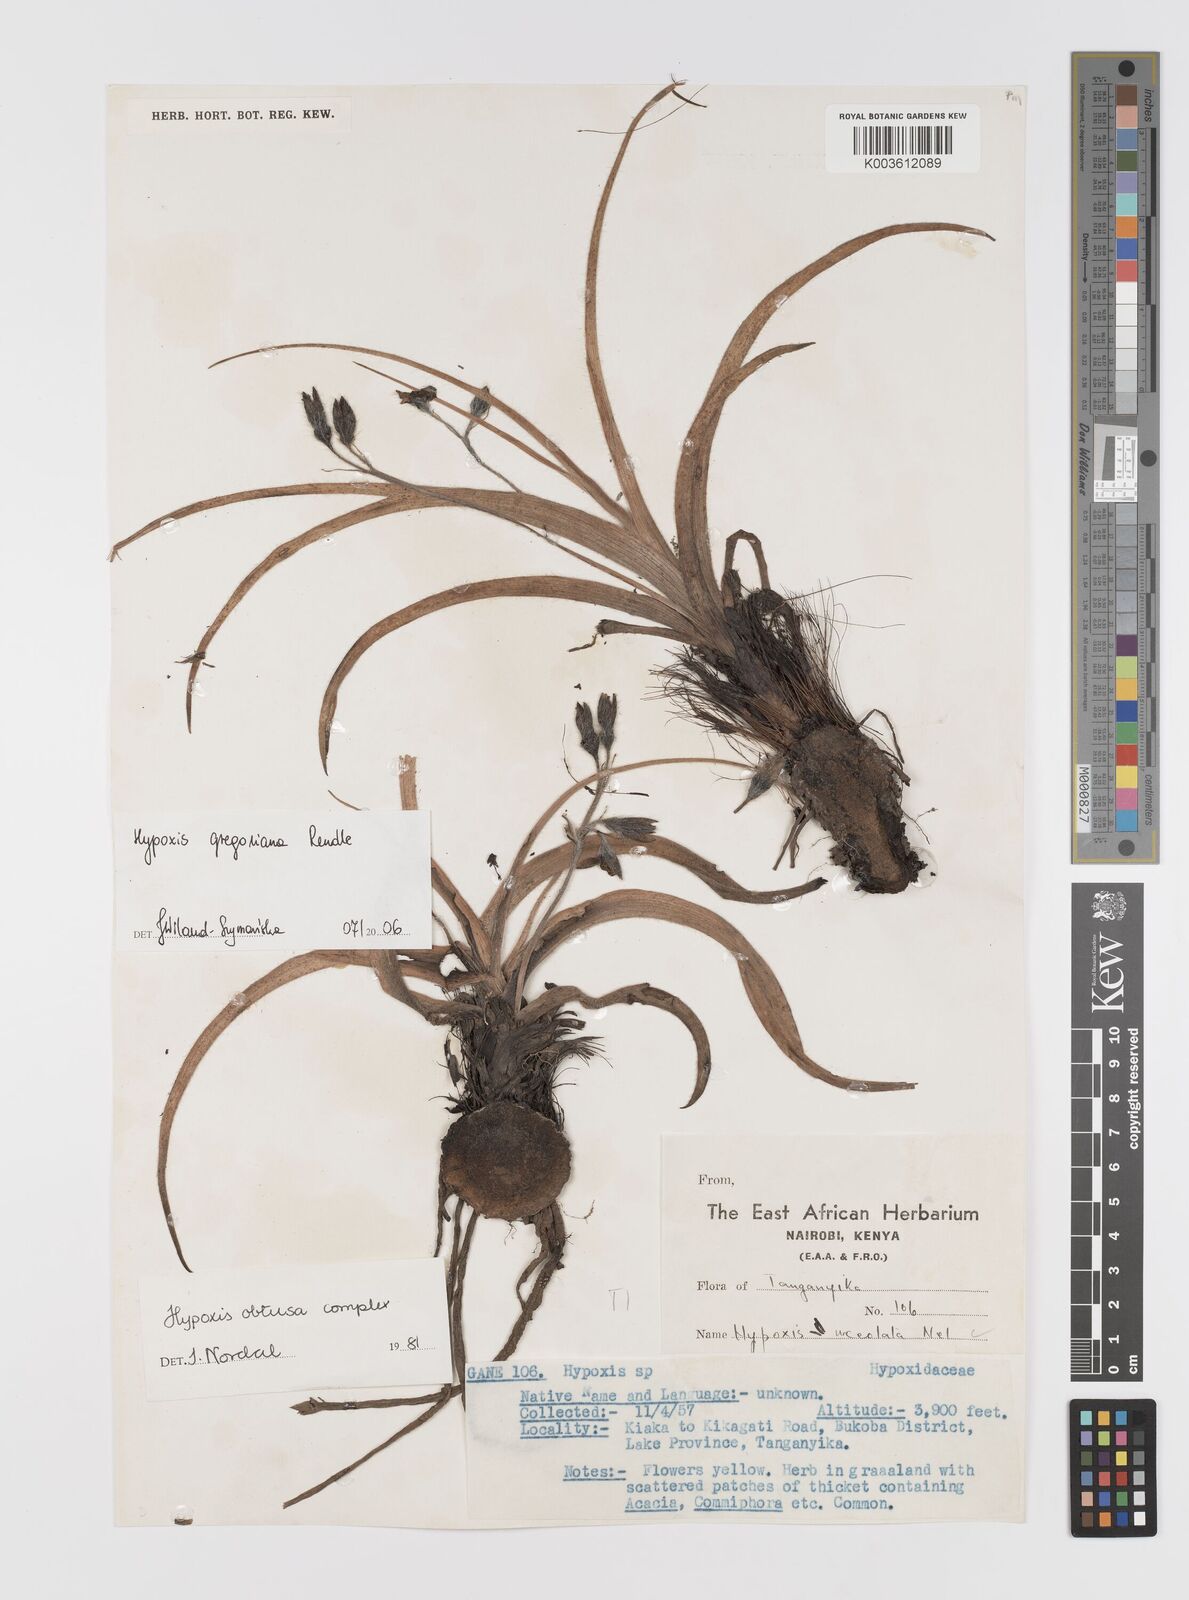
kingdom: Plantae
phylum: Tracheophyta
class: Liliopsida
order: Asparagales
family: Hypoxidaceae
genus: Hypoxis
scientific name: Hypoxis gregoriana
